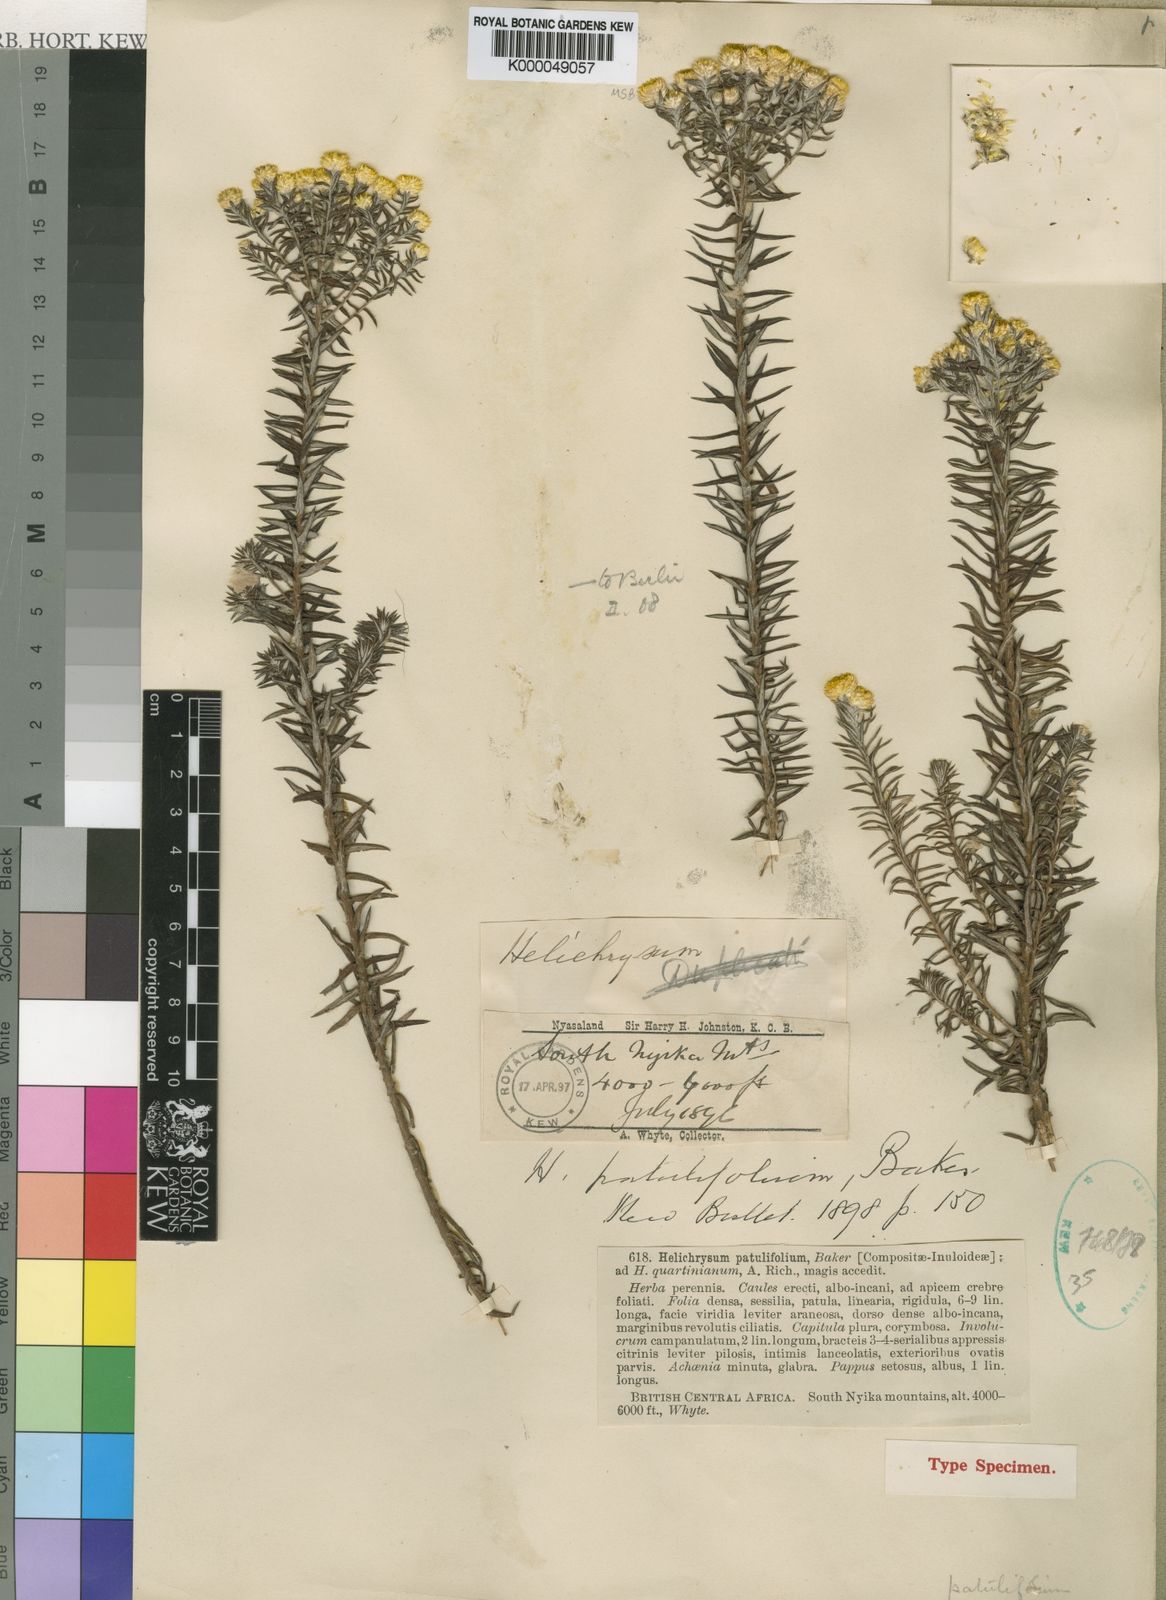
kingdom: Plantae
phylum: Tracheophyta
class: Magnoliopsida
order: Asterales
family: Asteraceae
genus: Helichrysum
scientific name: Helichrysum patulifolium
